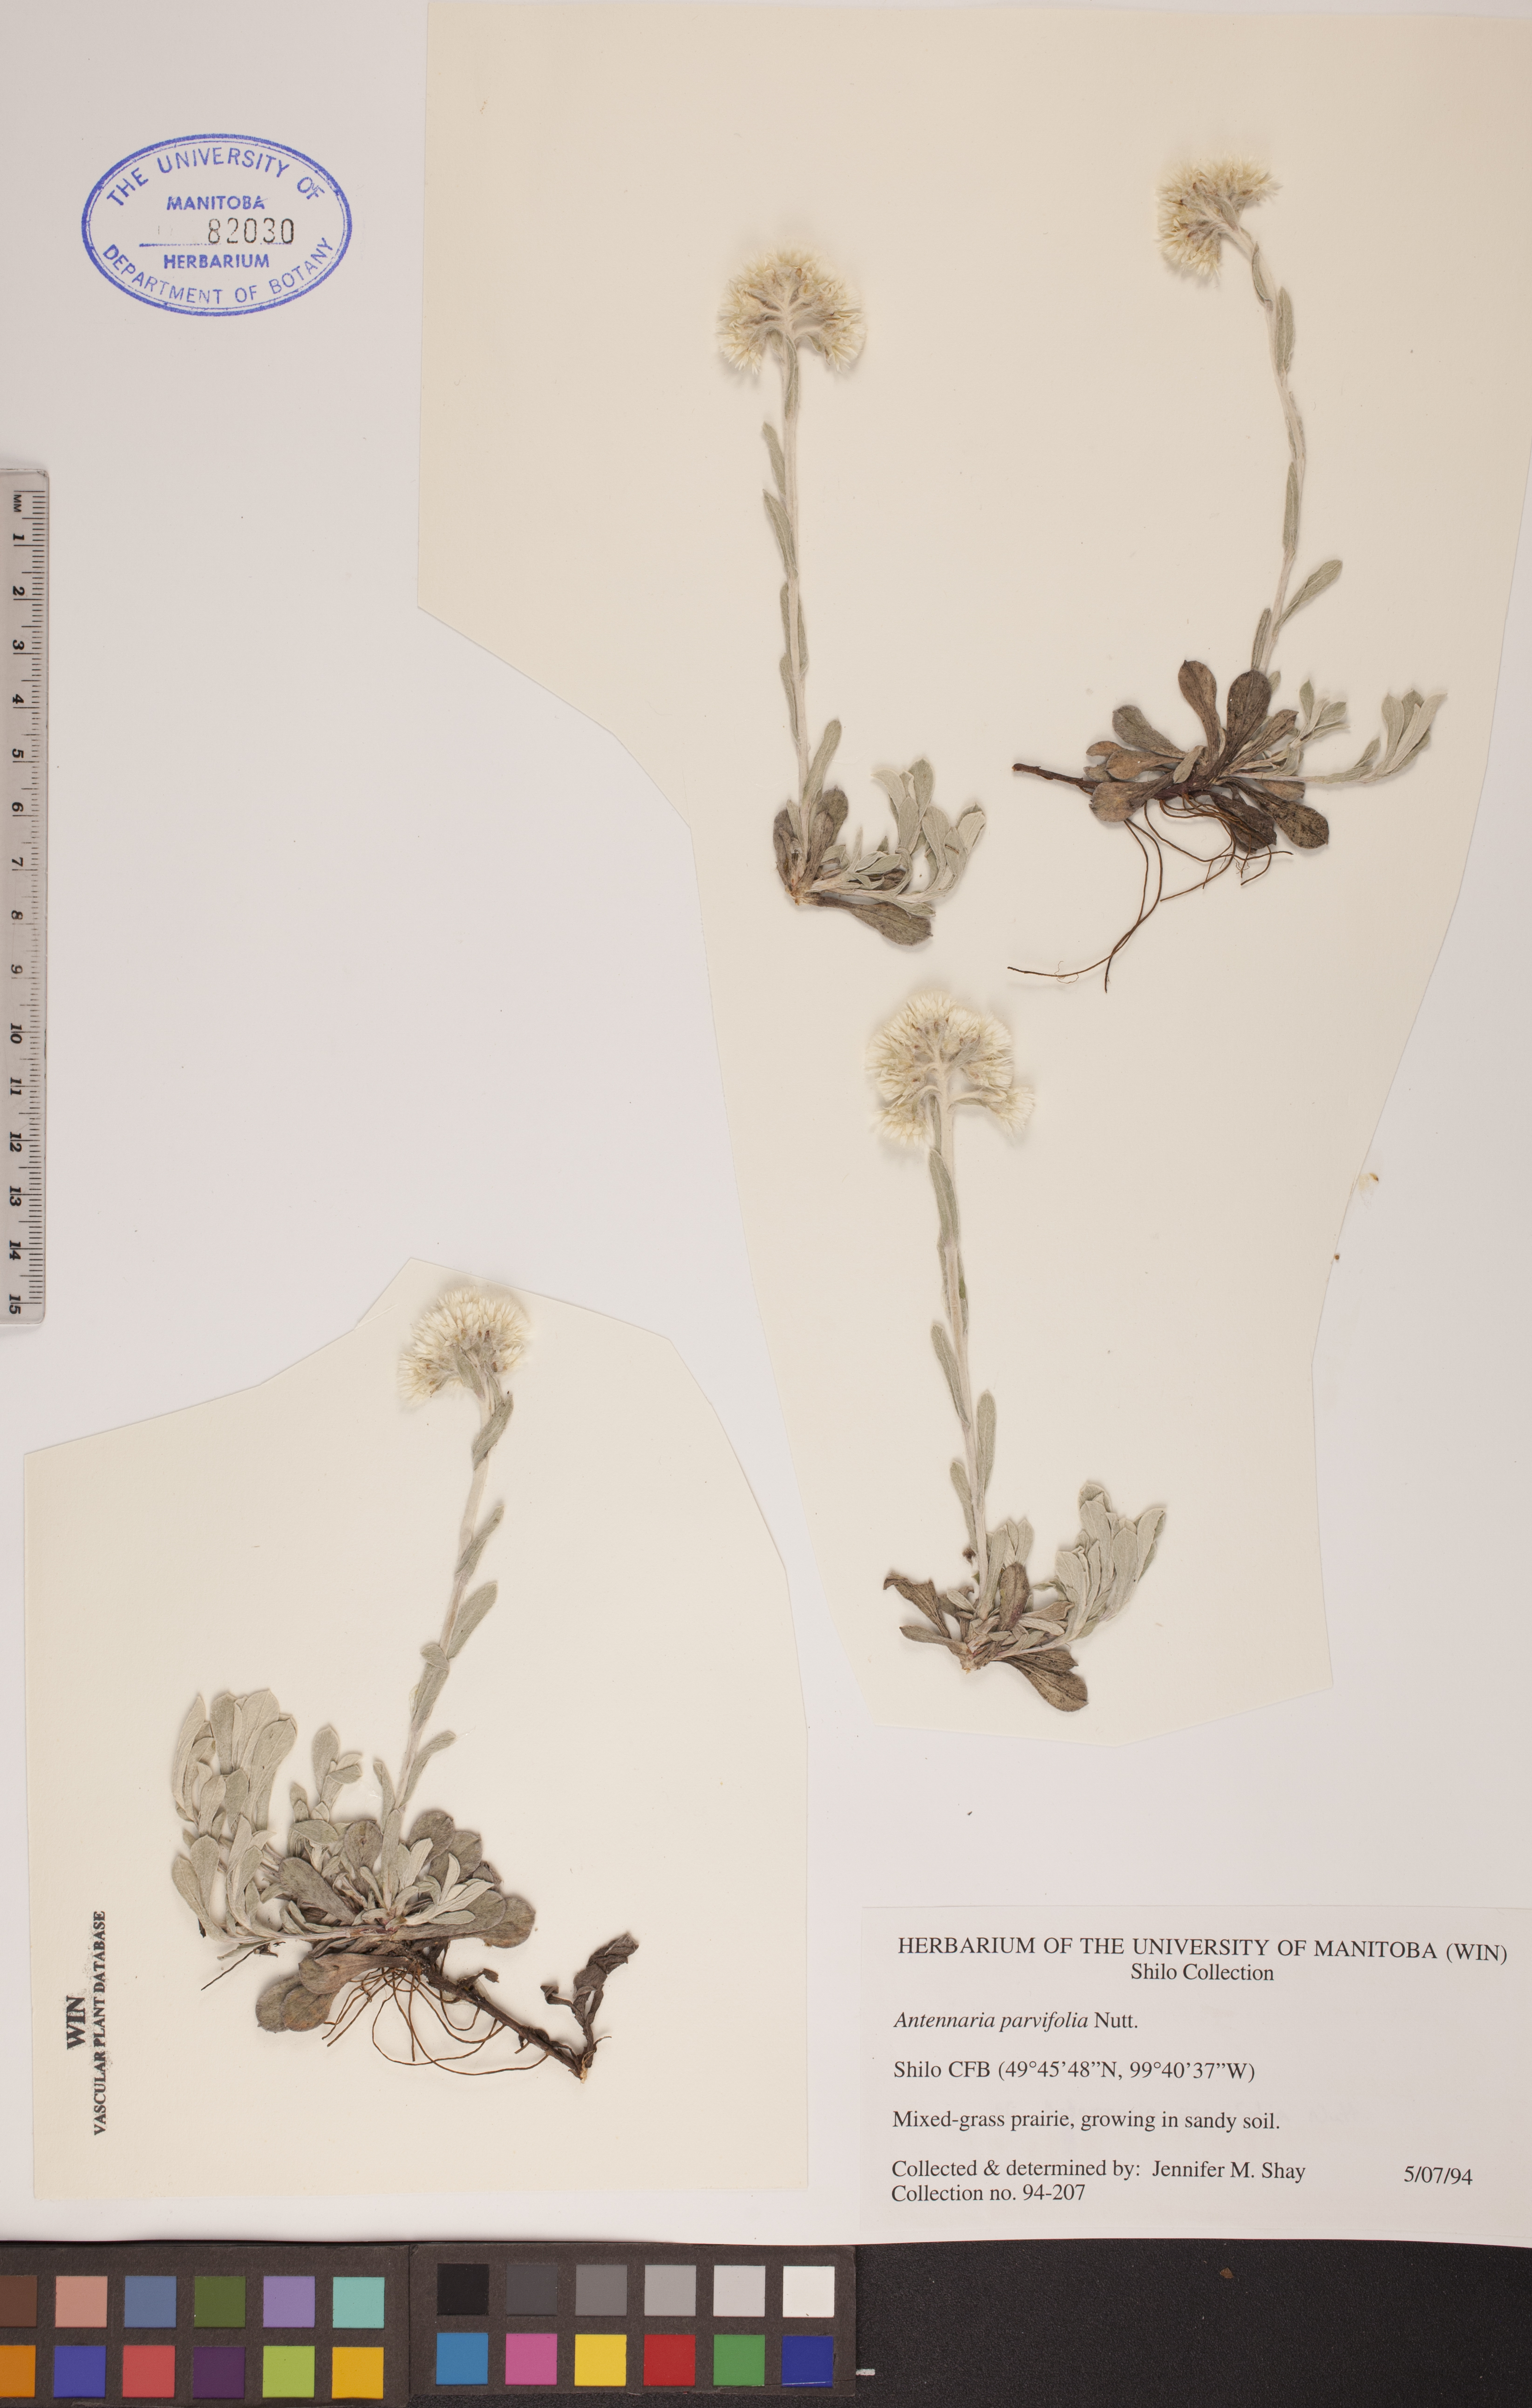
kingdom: Plantae
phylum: Tracheophyta
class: Magnoliopsida
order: Asterales
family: Asteraceae
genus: Antennaria
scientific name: Antennaria parvifolia
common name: Nuttall's pussytoes
